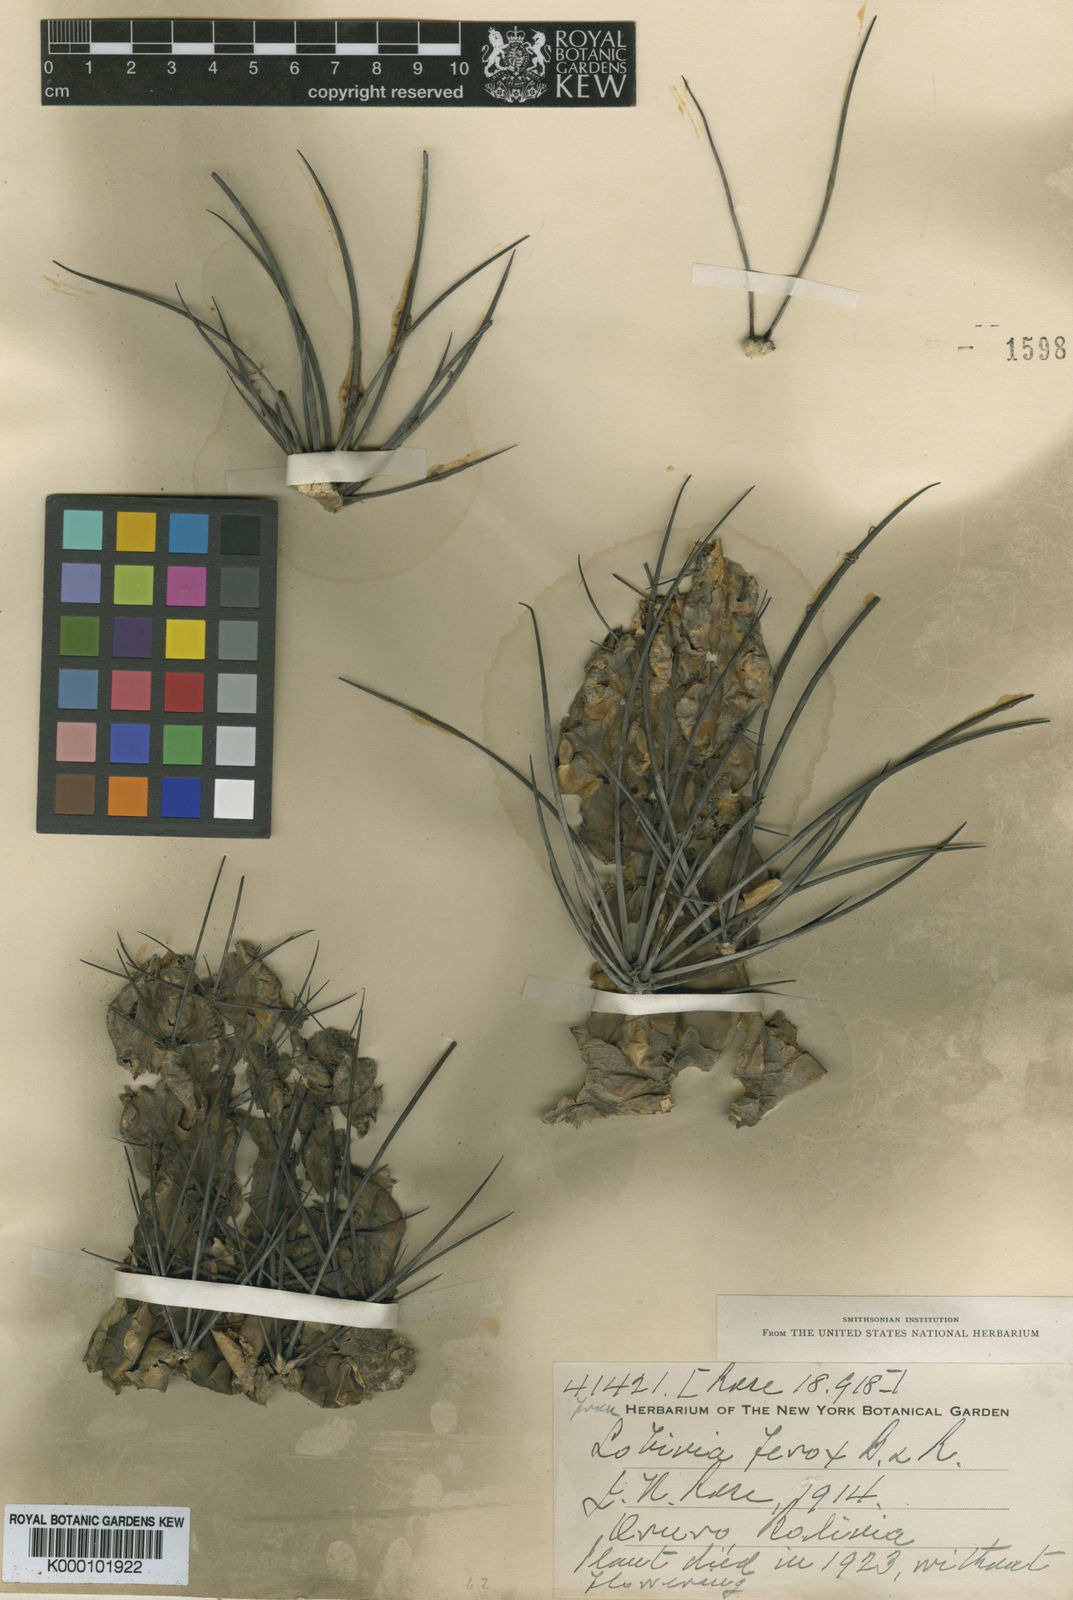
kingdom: Plantae
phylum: Tracheophyta
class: Magnoliopsida
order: Caryophyllales
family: Cactaceae
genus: Lobivia
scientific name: Lobivia ferox
